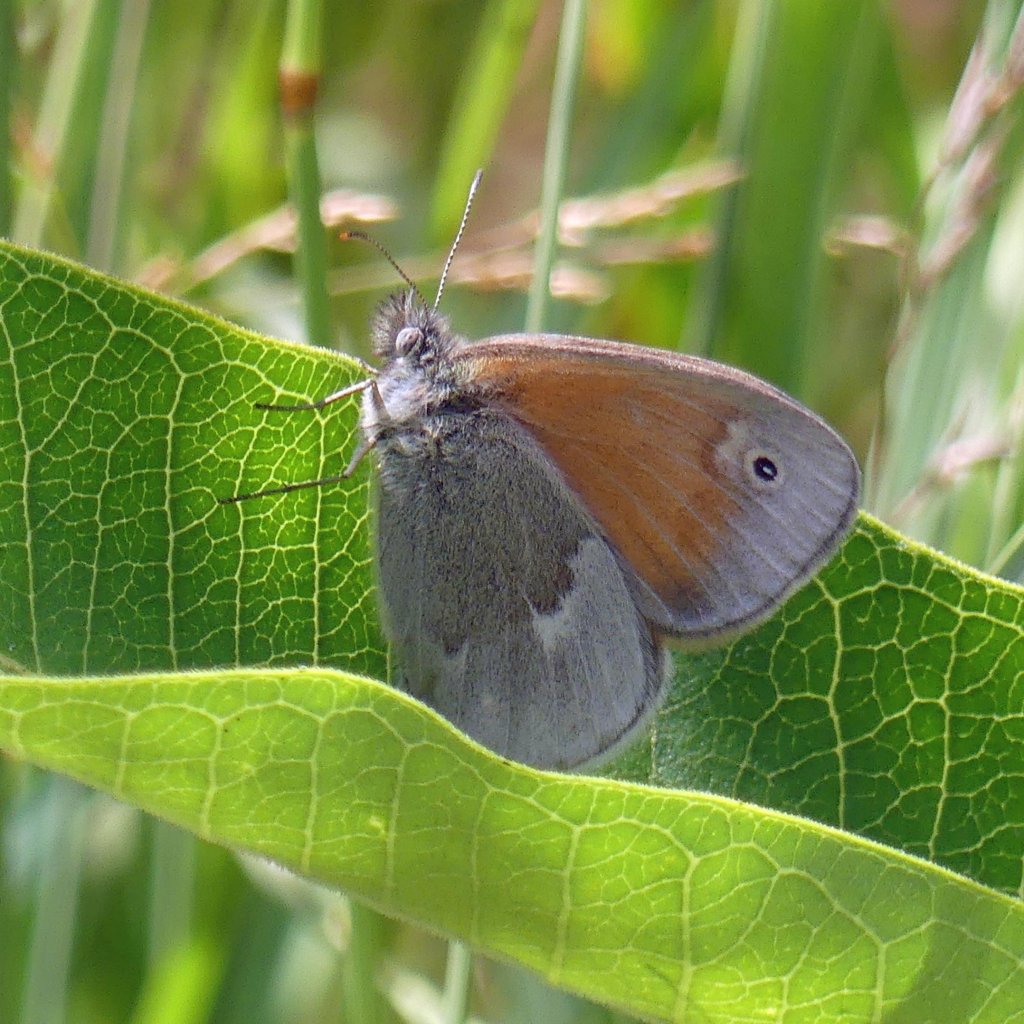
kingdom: Animalia
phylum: Arthropoda
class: Insecta
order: Lepidoptera
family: Nymphalidae
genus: Coenonympha
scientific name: Coenonympha tullia
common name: Large Heath
